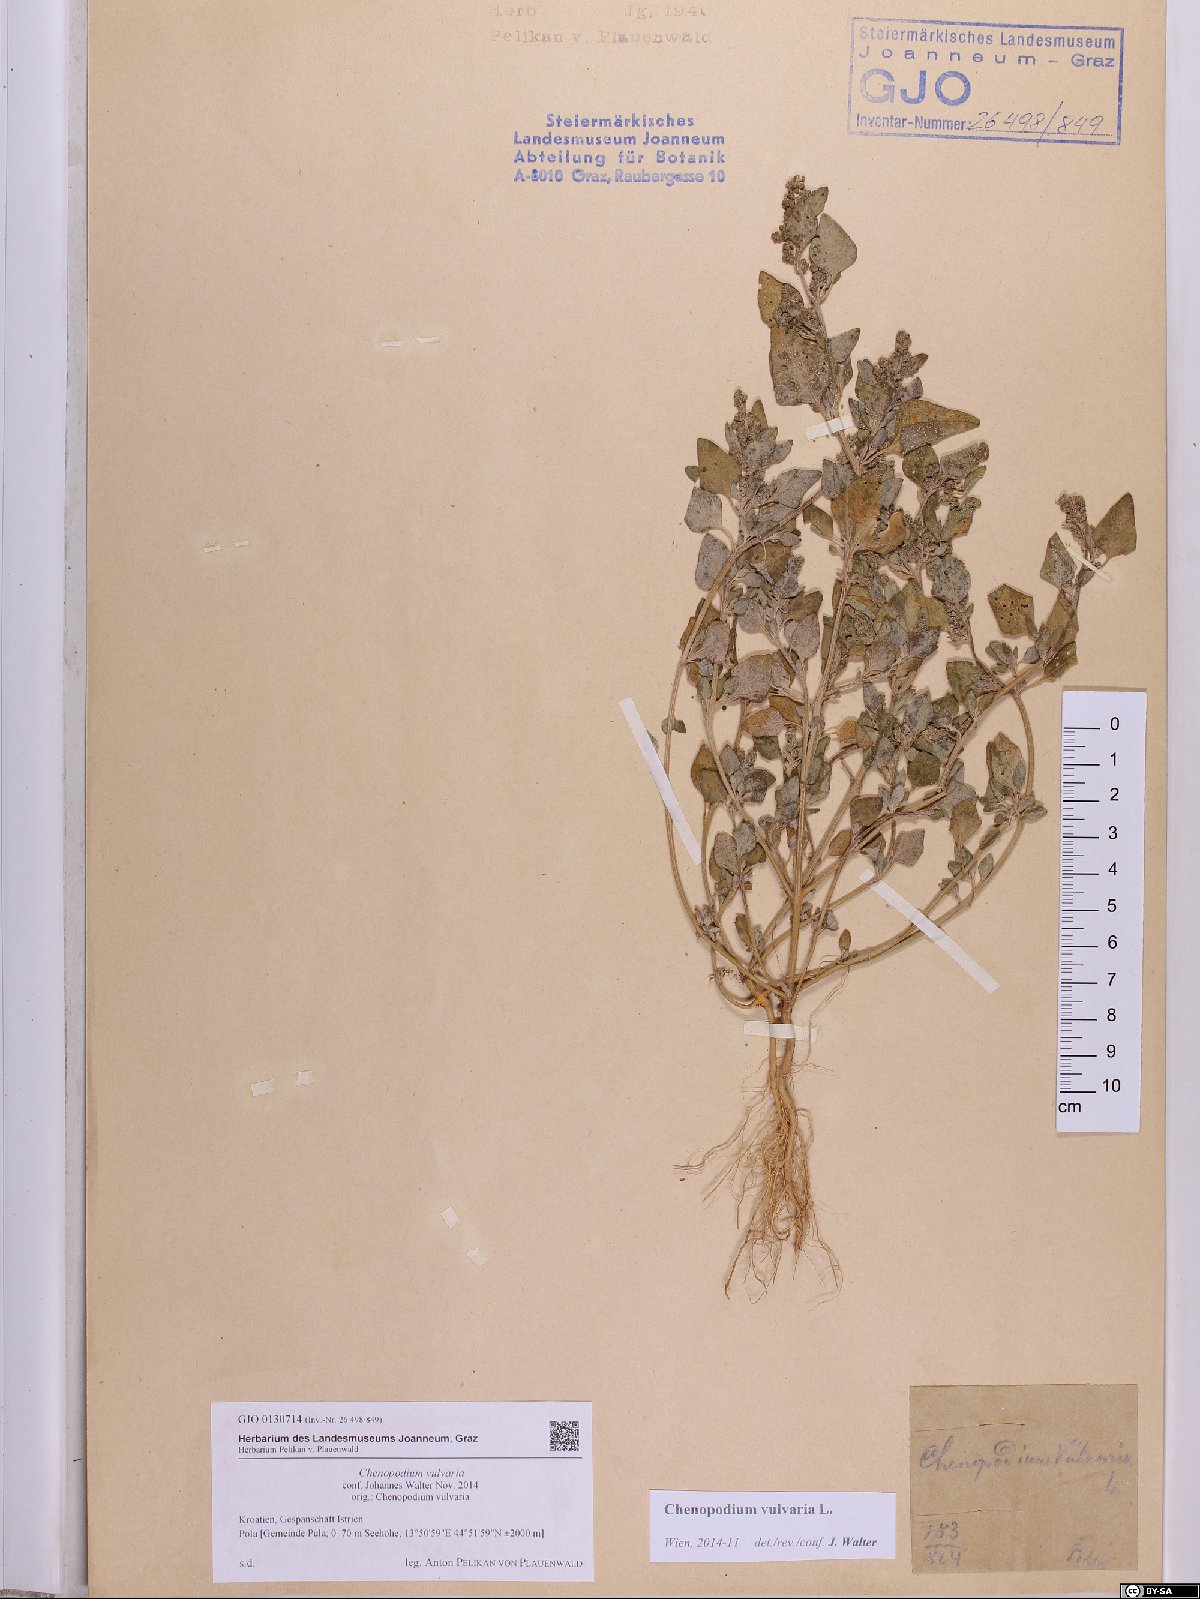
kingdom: Plantae
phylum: Tracheophyta
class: Magnoliopsida
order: Caryophyllales
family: Amaranthaceae
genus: Chenopodium
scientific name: Chenopodium vulvaria
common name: Stinking goosefoot
